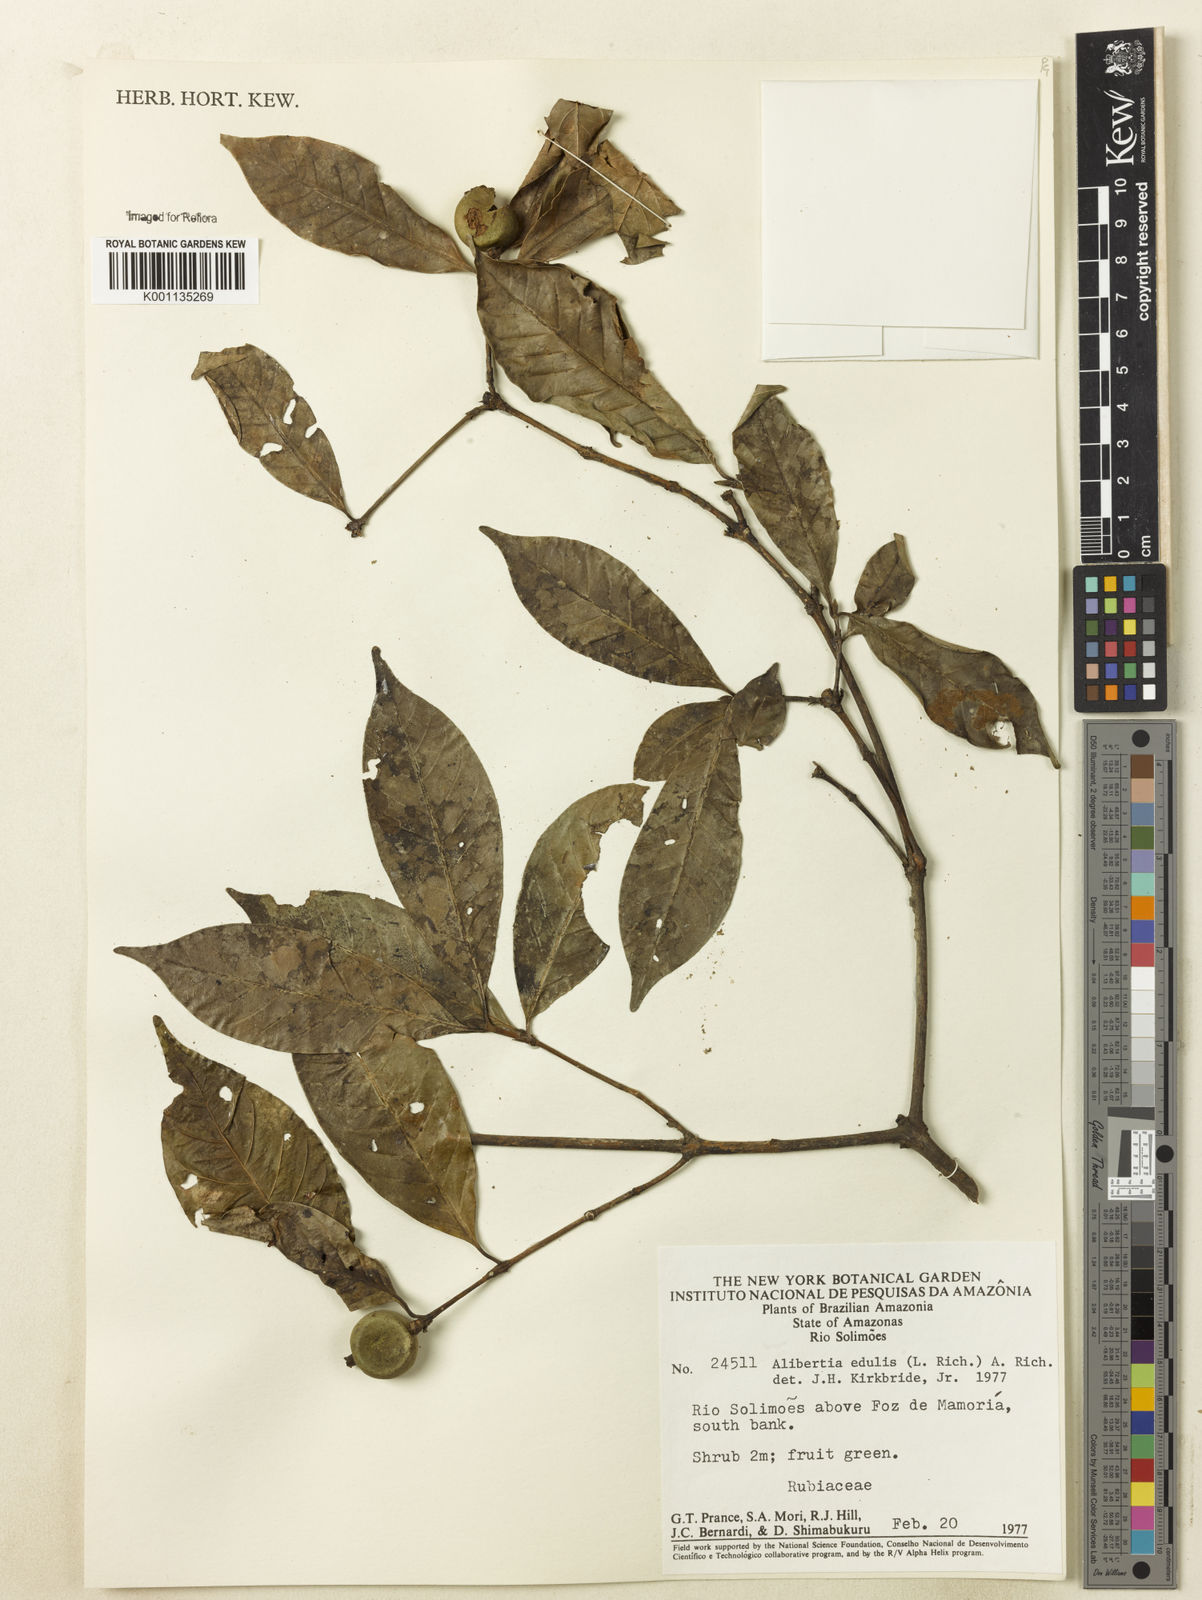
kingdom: Plantae
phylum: Tracheophyta
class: Magnoliopsida
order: Gentianales
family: Rubiaceae
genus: Alibertia
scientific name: Alibertia edulis
